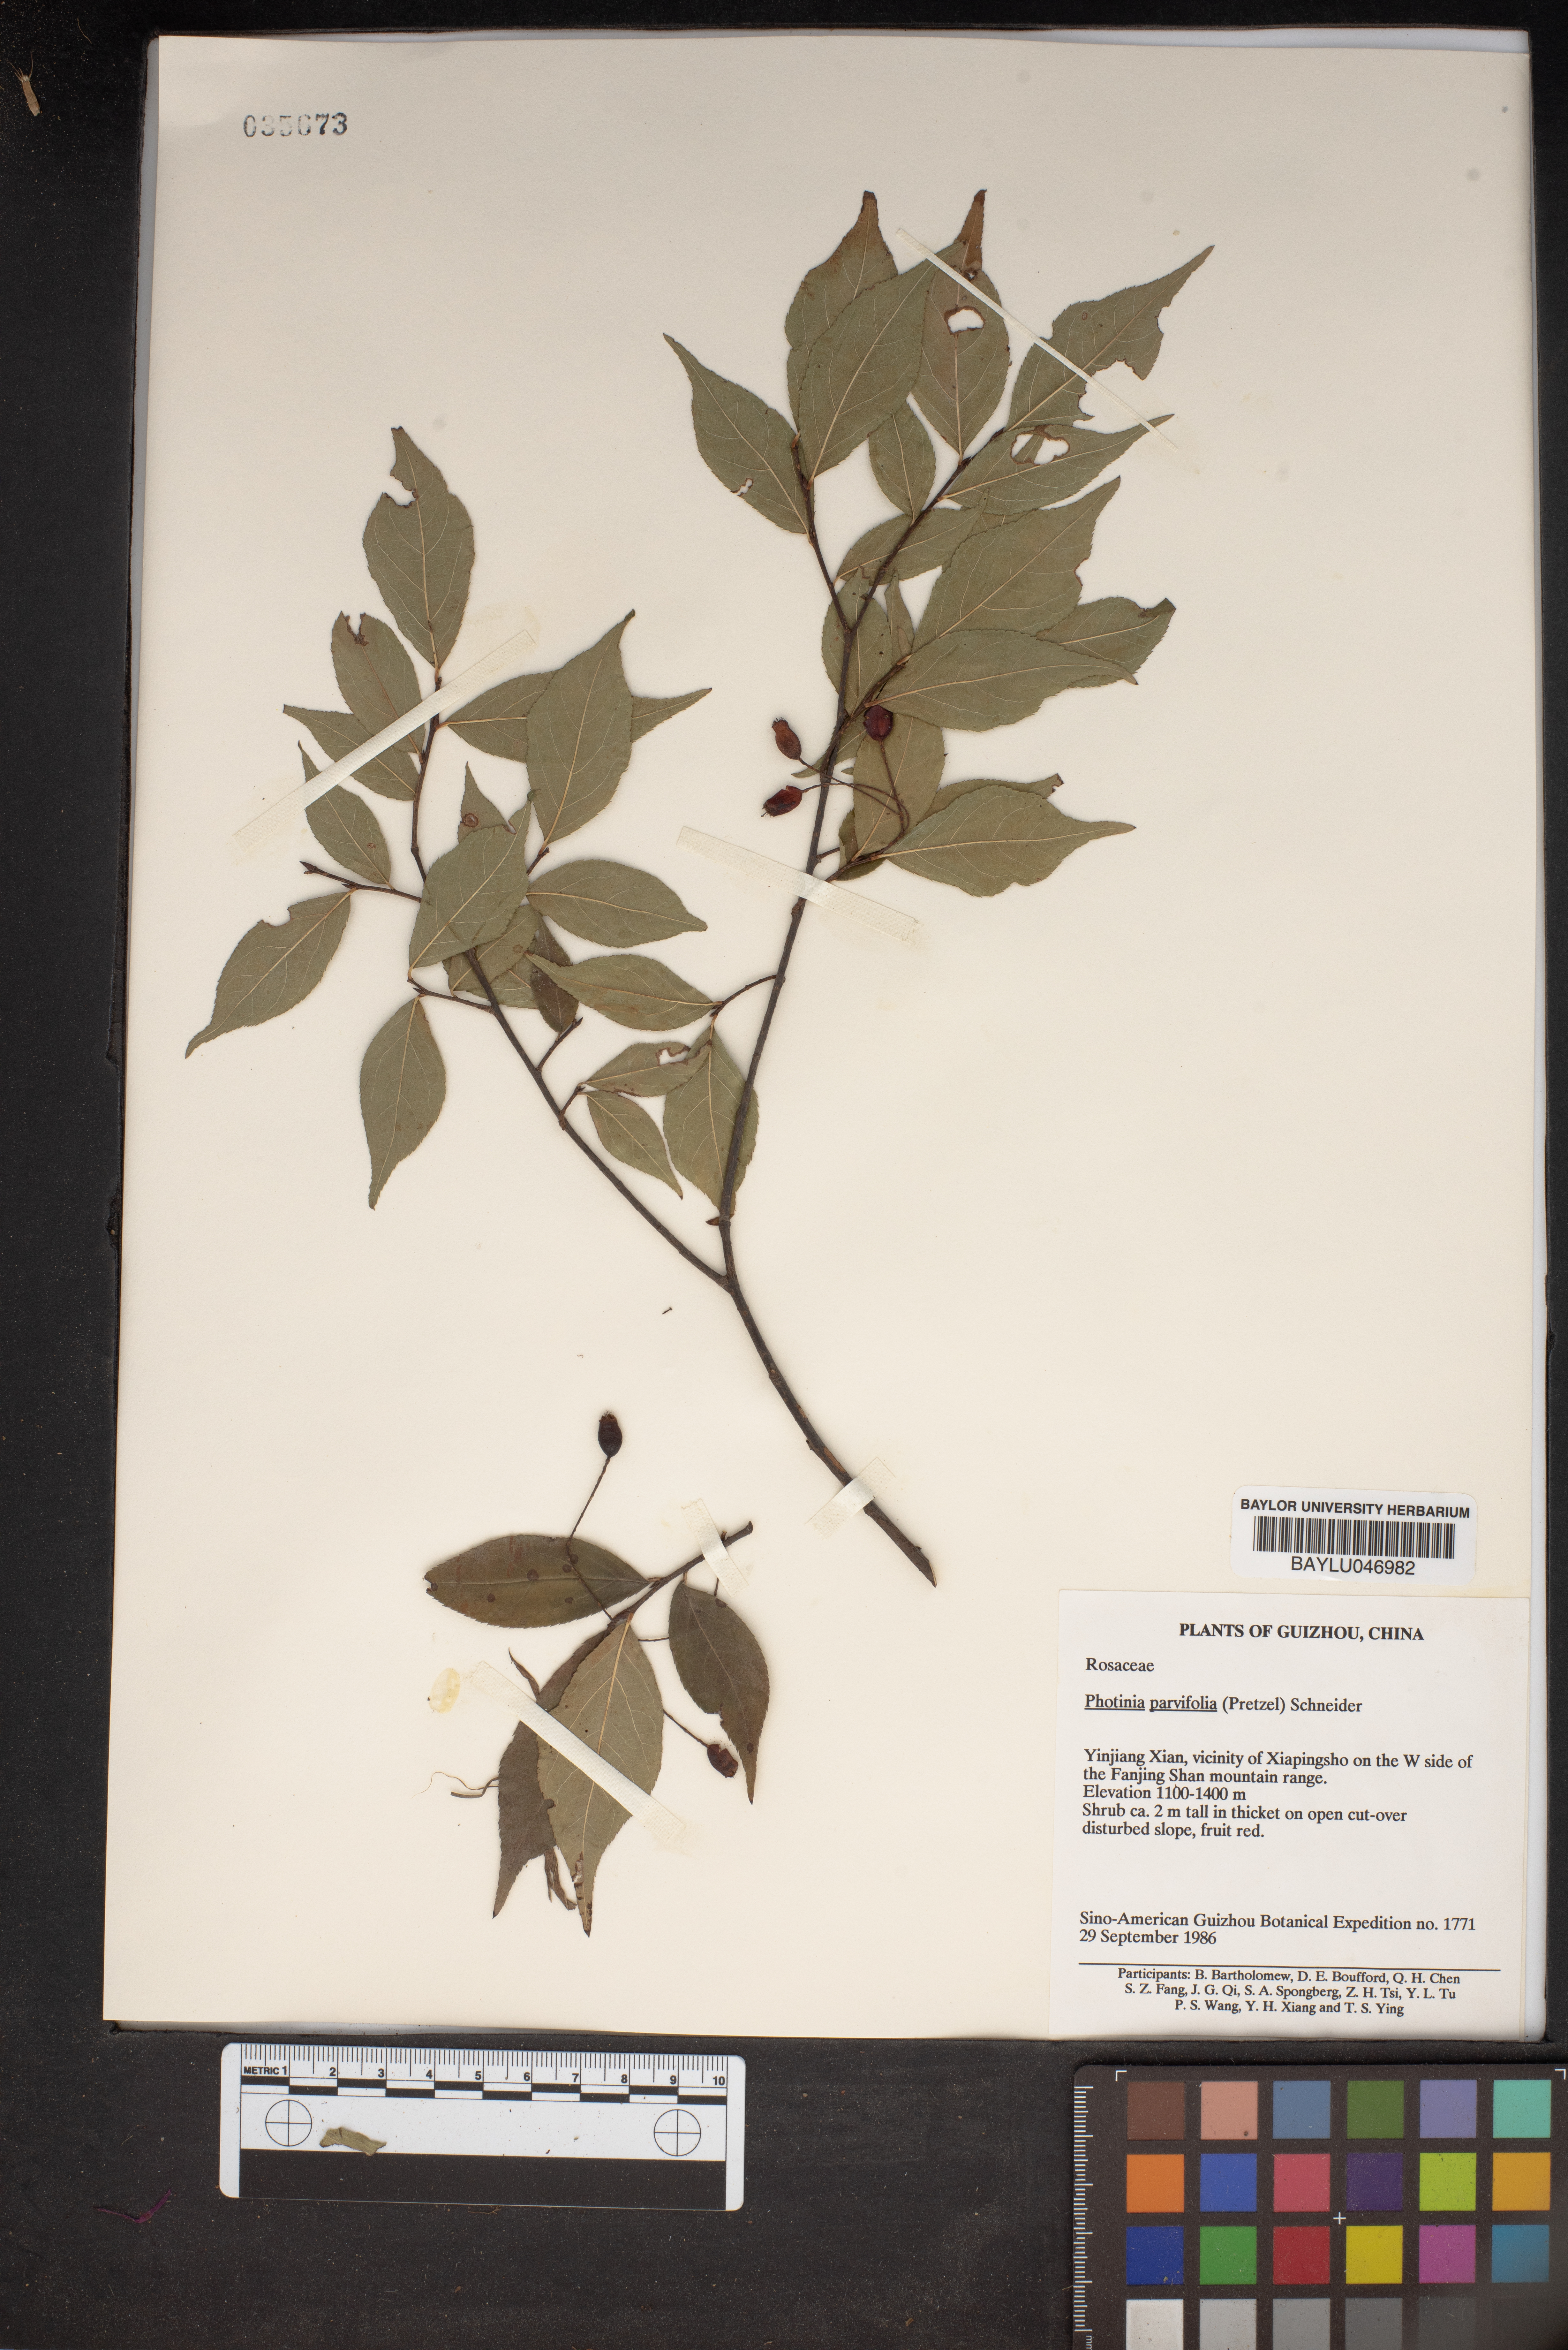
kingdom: Plantae
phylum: Tracheophyta
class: Magnoliopsida
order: Rosales
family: Rosaceae
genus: Pourthiaea
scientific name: Pourthiaea parviflora
